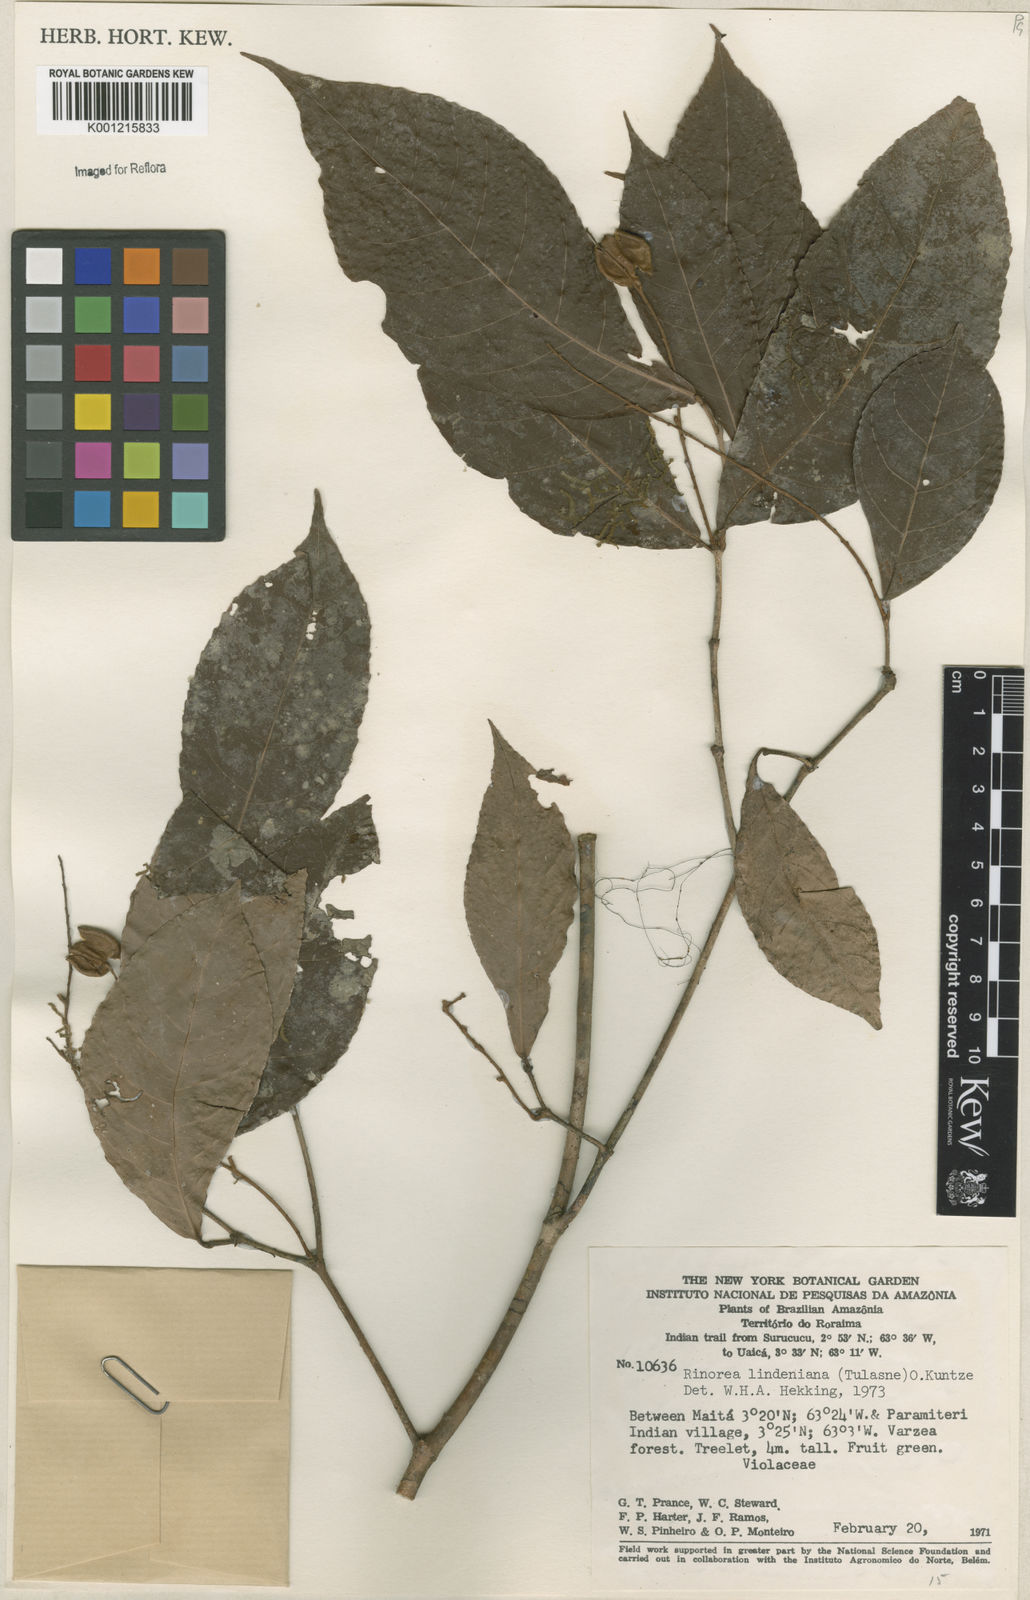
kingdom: Plantae
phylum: Tracheophyta
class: Magnoliopsida
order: Malpighiales
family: Violaceae
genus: Rinorea
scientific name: Rinorea lindeniana
